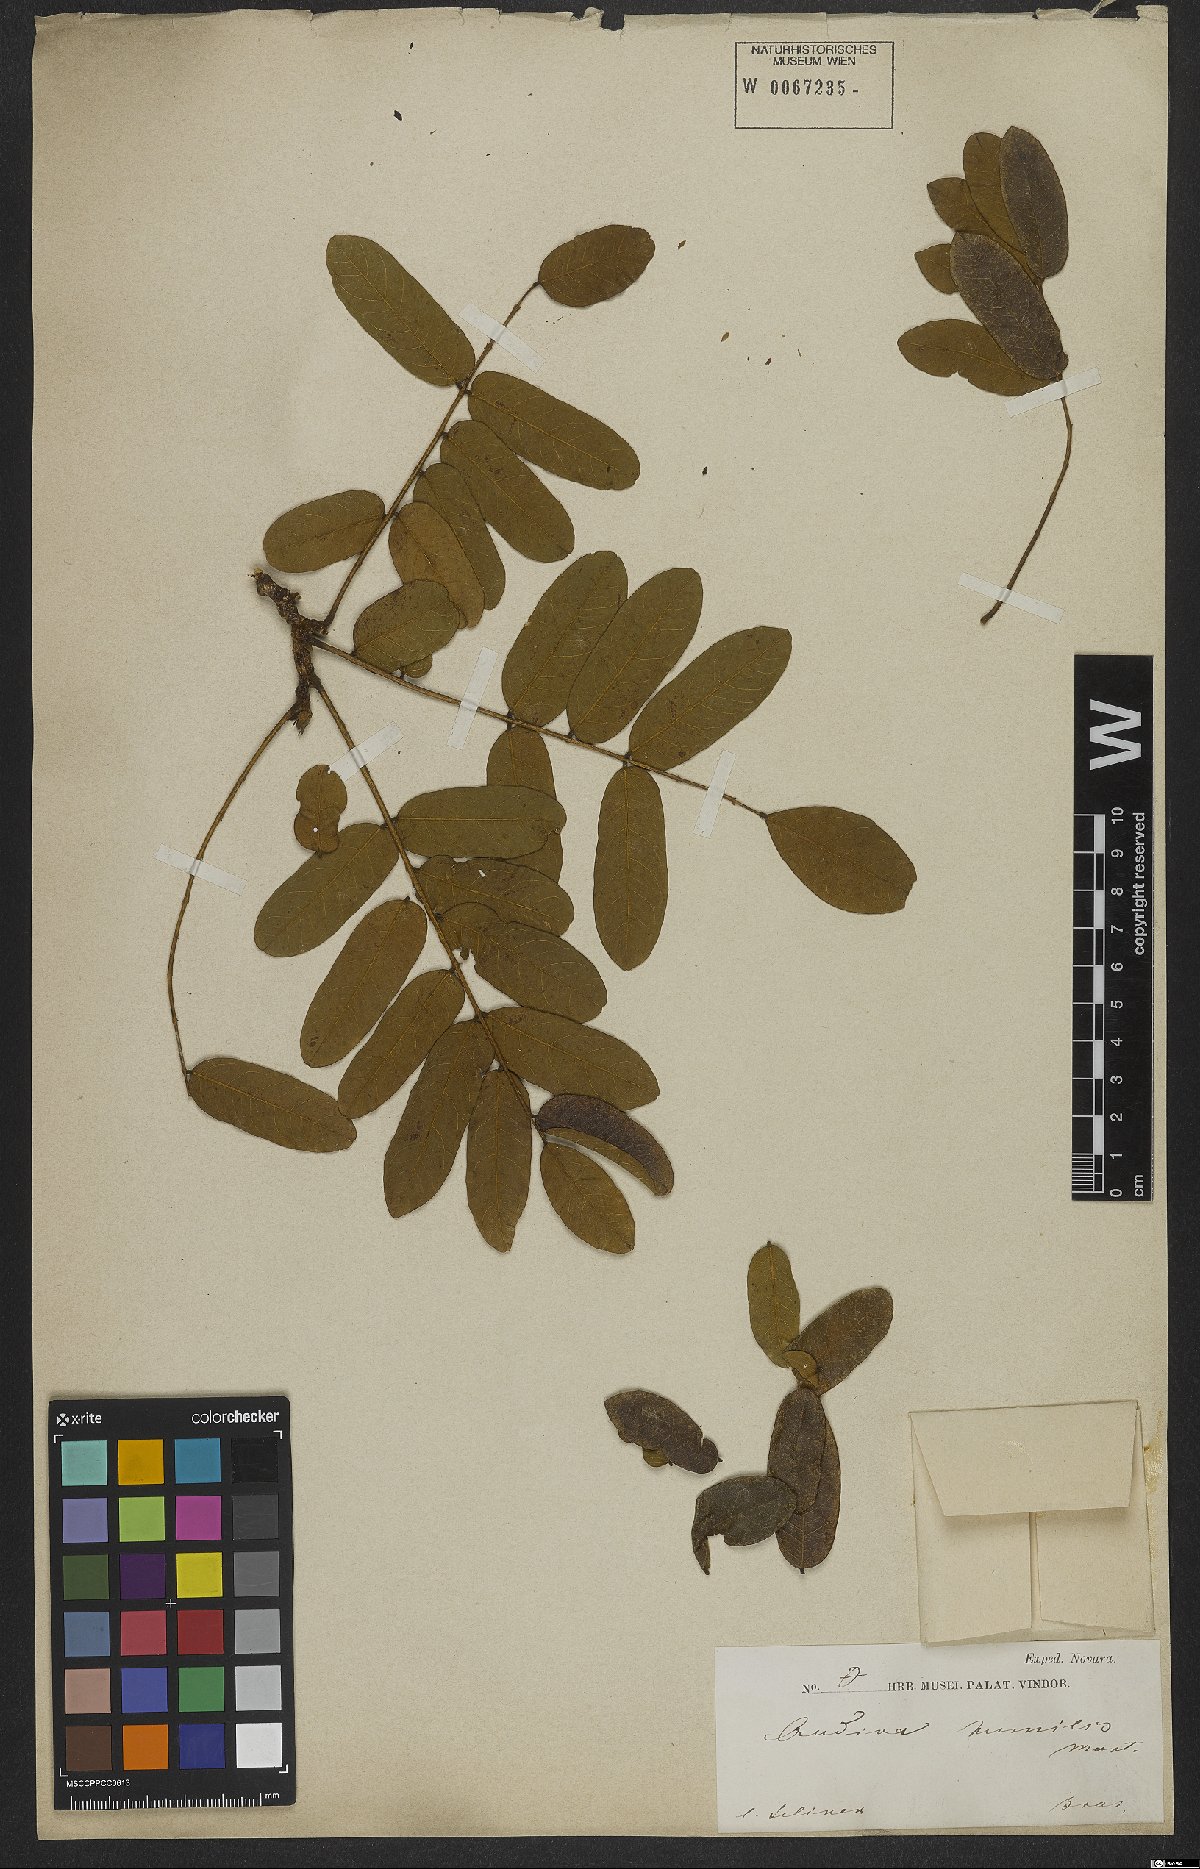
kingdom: Plantae
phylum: Tracheophyta
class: Magnoliopsida
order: Fabales
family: Fabaceae
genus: Andira
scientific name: Andira humilis
